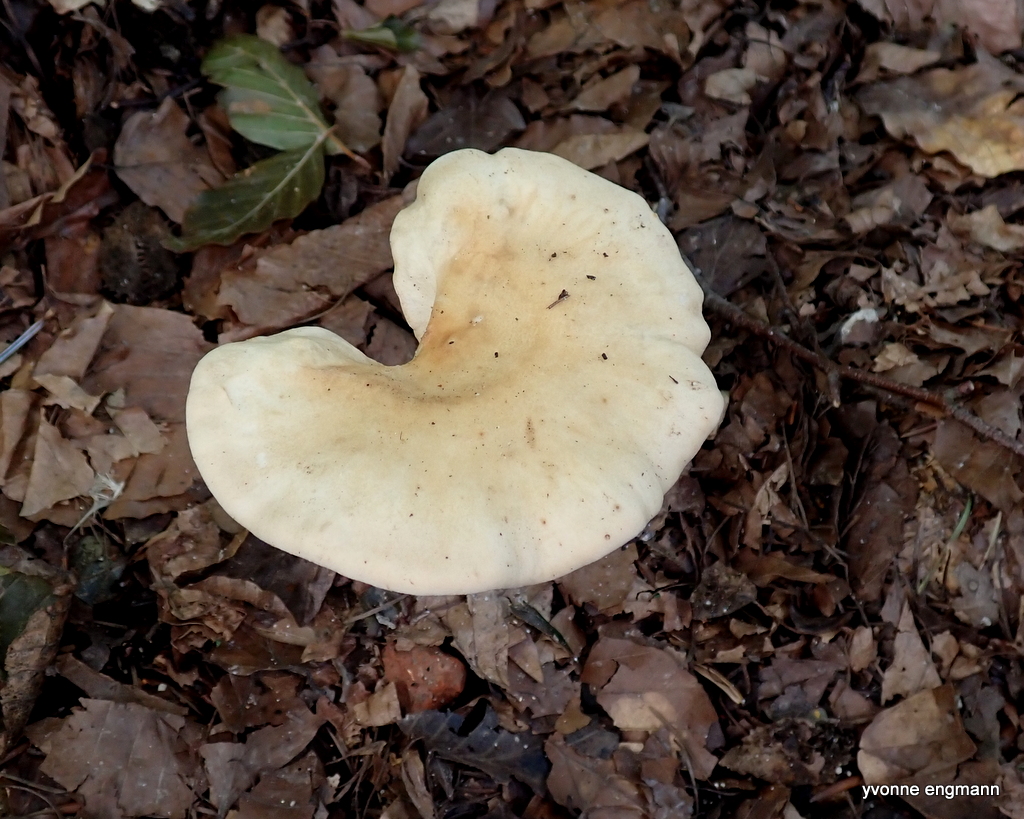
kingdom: Fungi
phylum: Basidiomycota
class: Agaricomycetes
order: Agaricales
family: Tricholomataceae
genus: Infundibulicybe
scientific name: Infundibulicybe gibba
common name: almindelig tragthat
